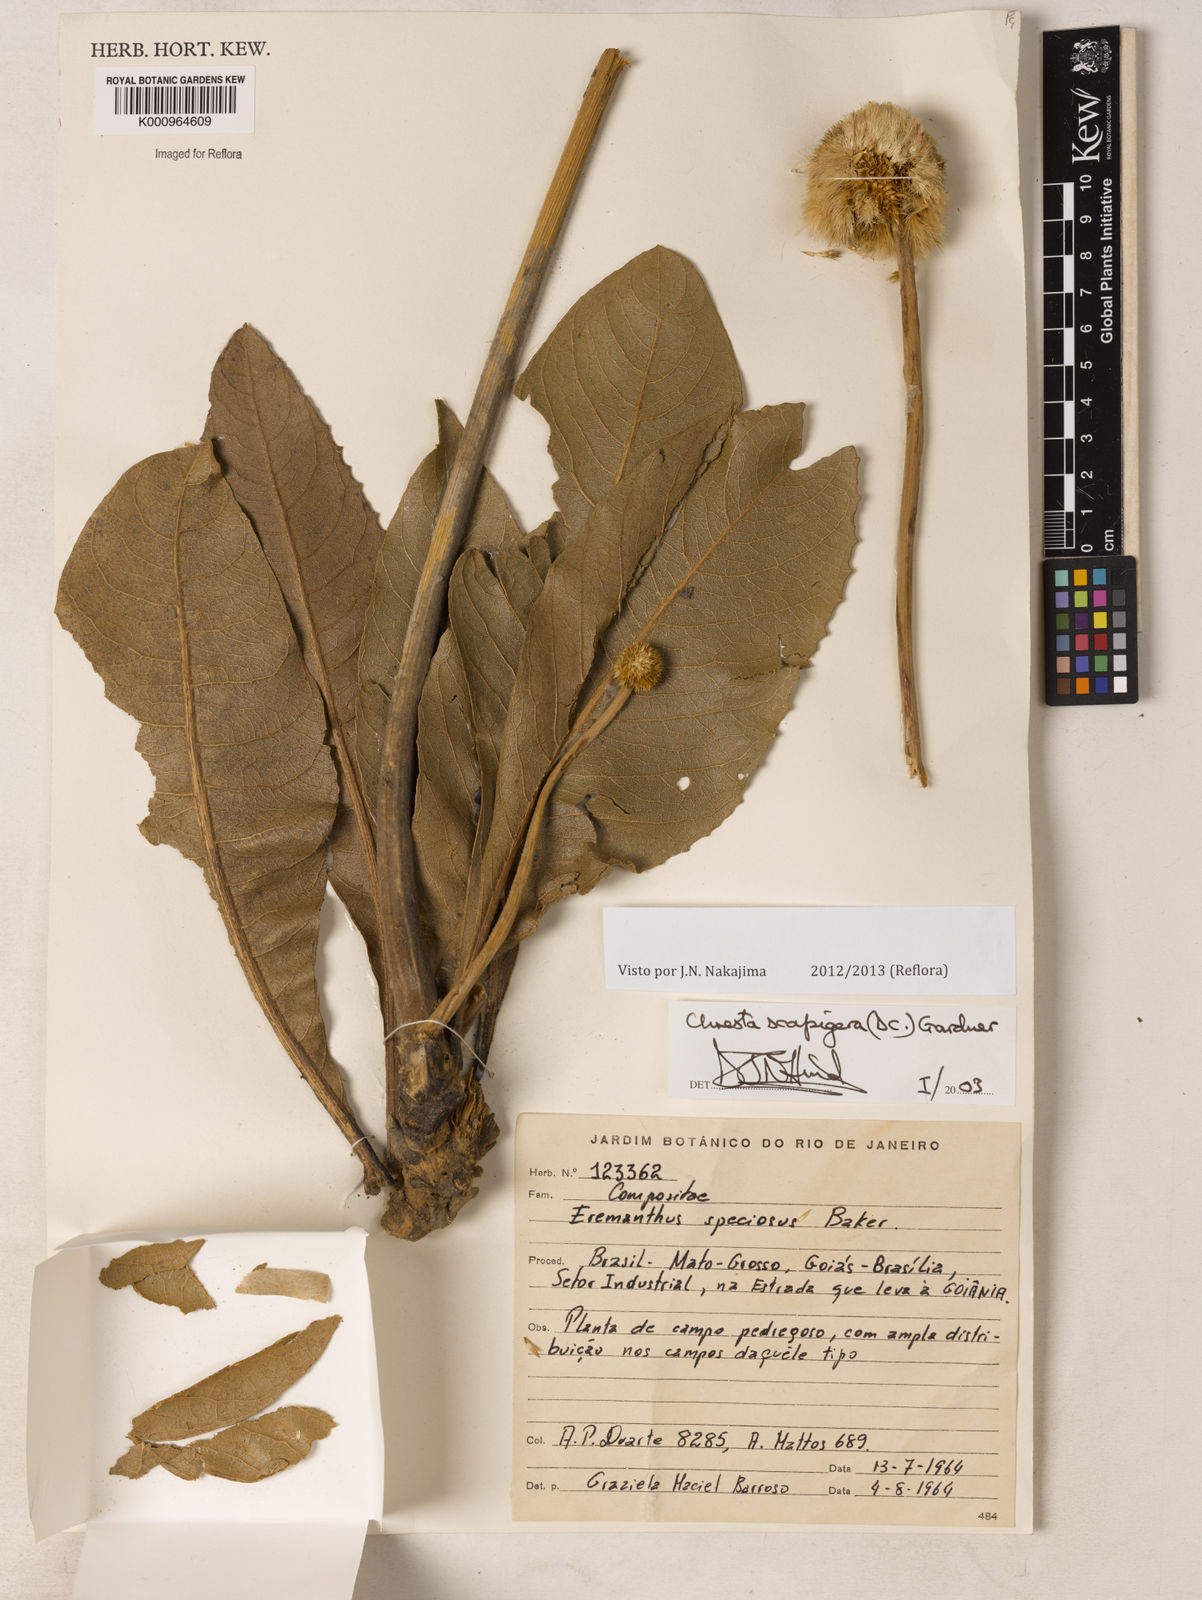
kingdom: Plantae
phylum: Tracheophyta
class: Magnoliopsida
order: Asterales
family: Asteraceae
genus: Chresta
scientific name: Chresta scapigera
